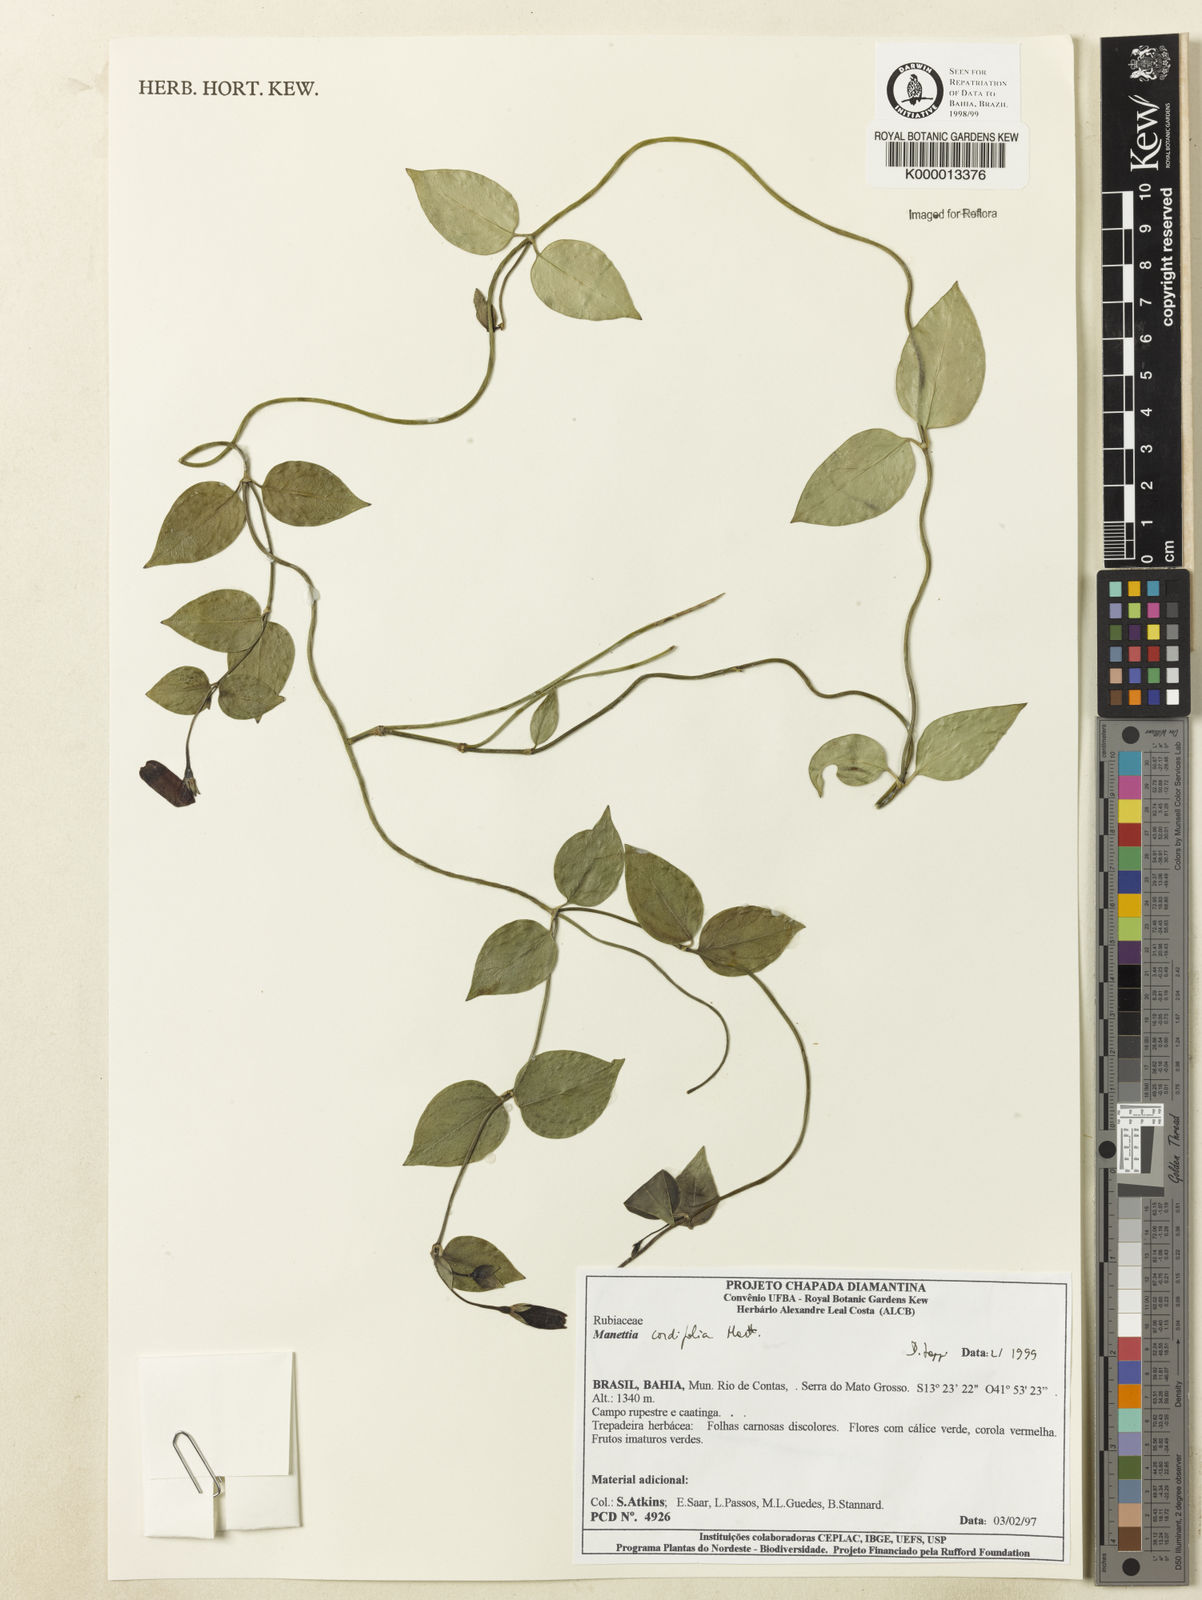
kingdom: Plantae
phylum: Tracheophyta
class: Magnoliopsida
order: Gentianales
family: Rubiaceae
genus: Manettia
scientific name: Manettia cordifolia
